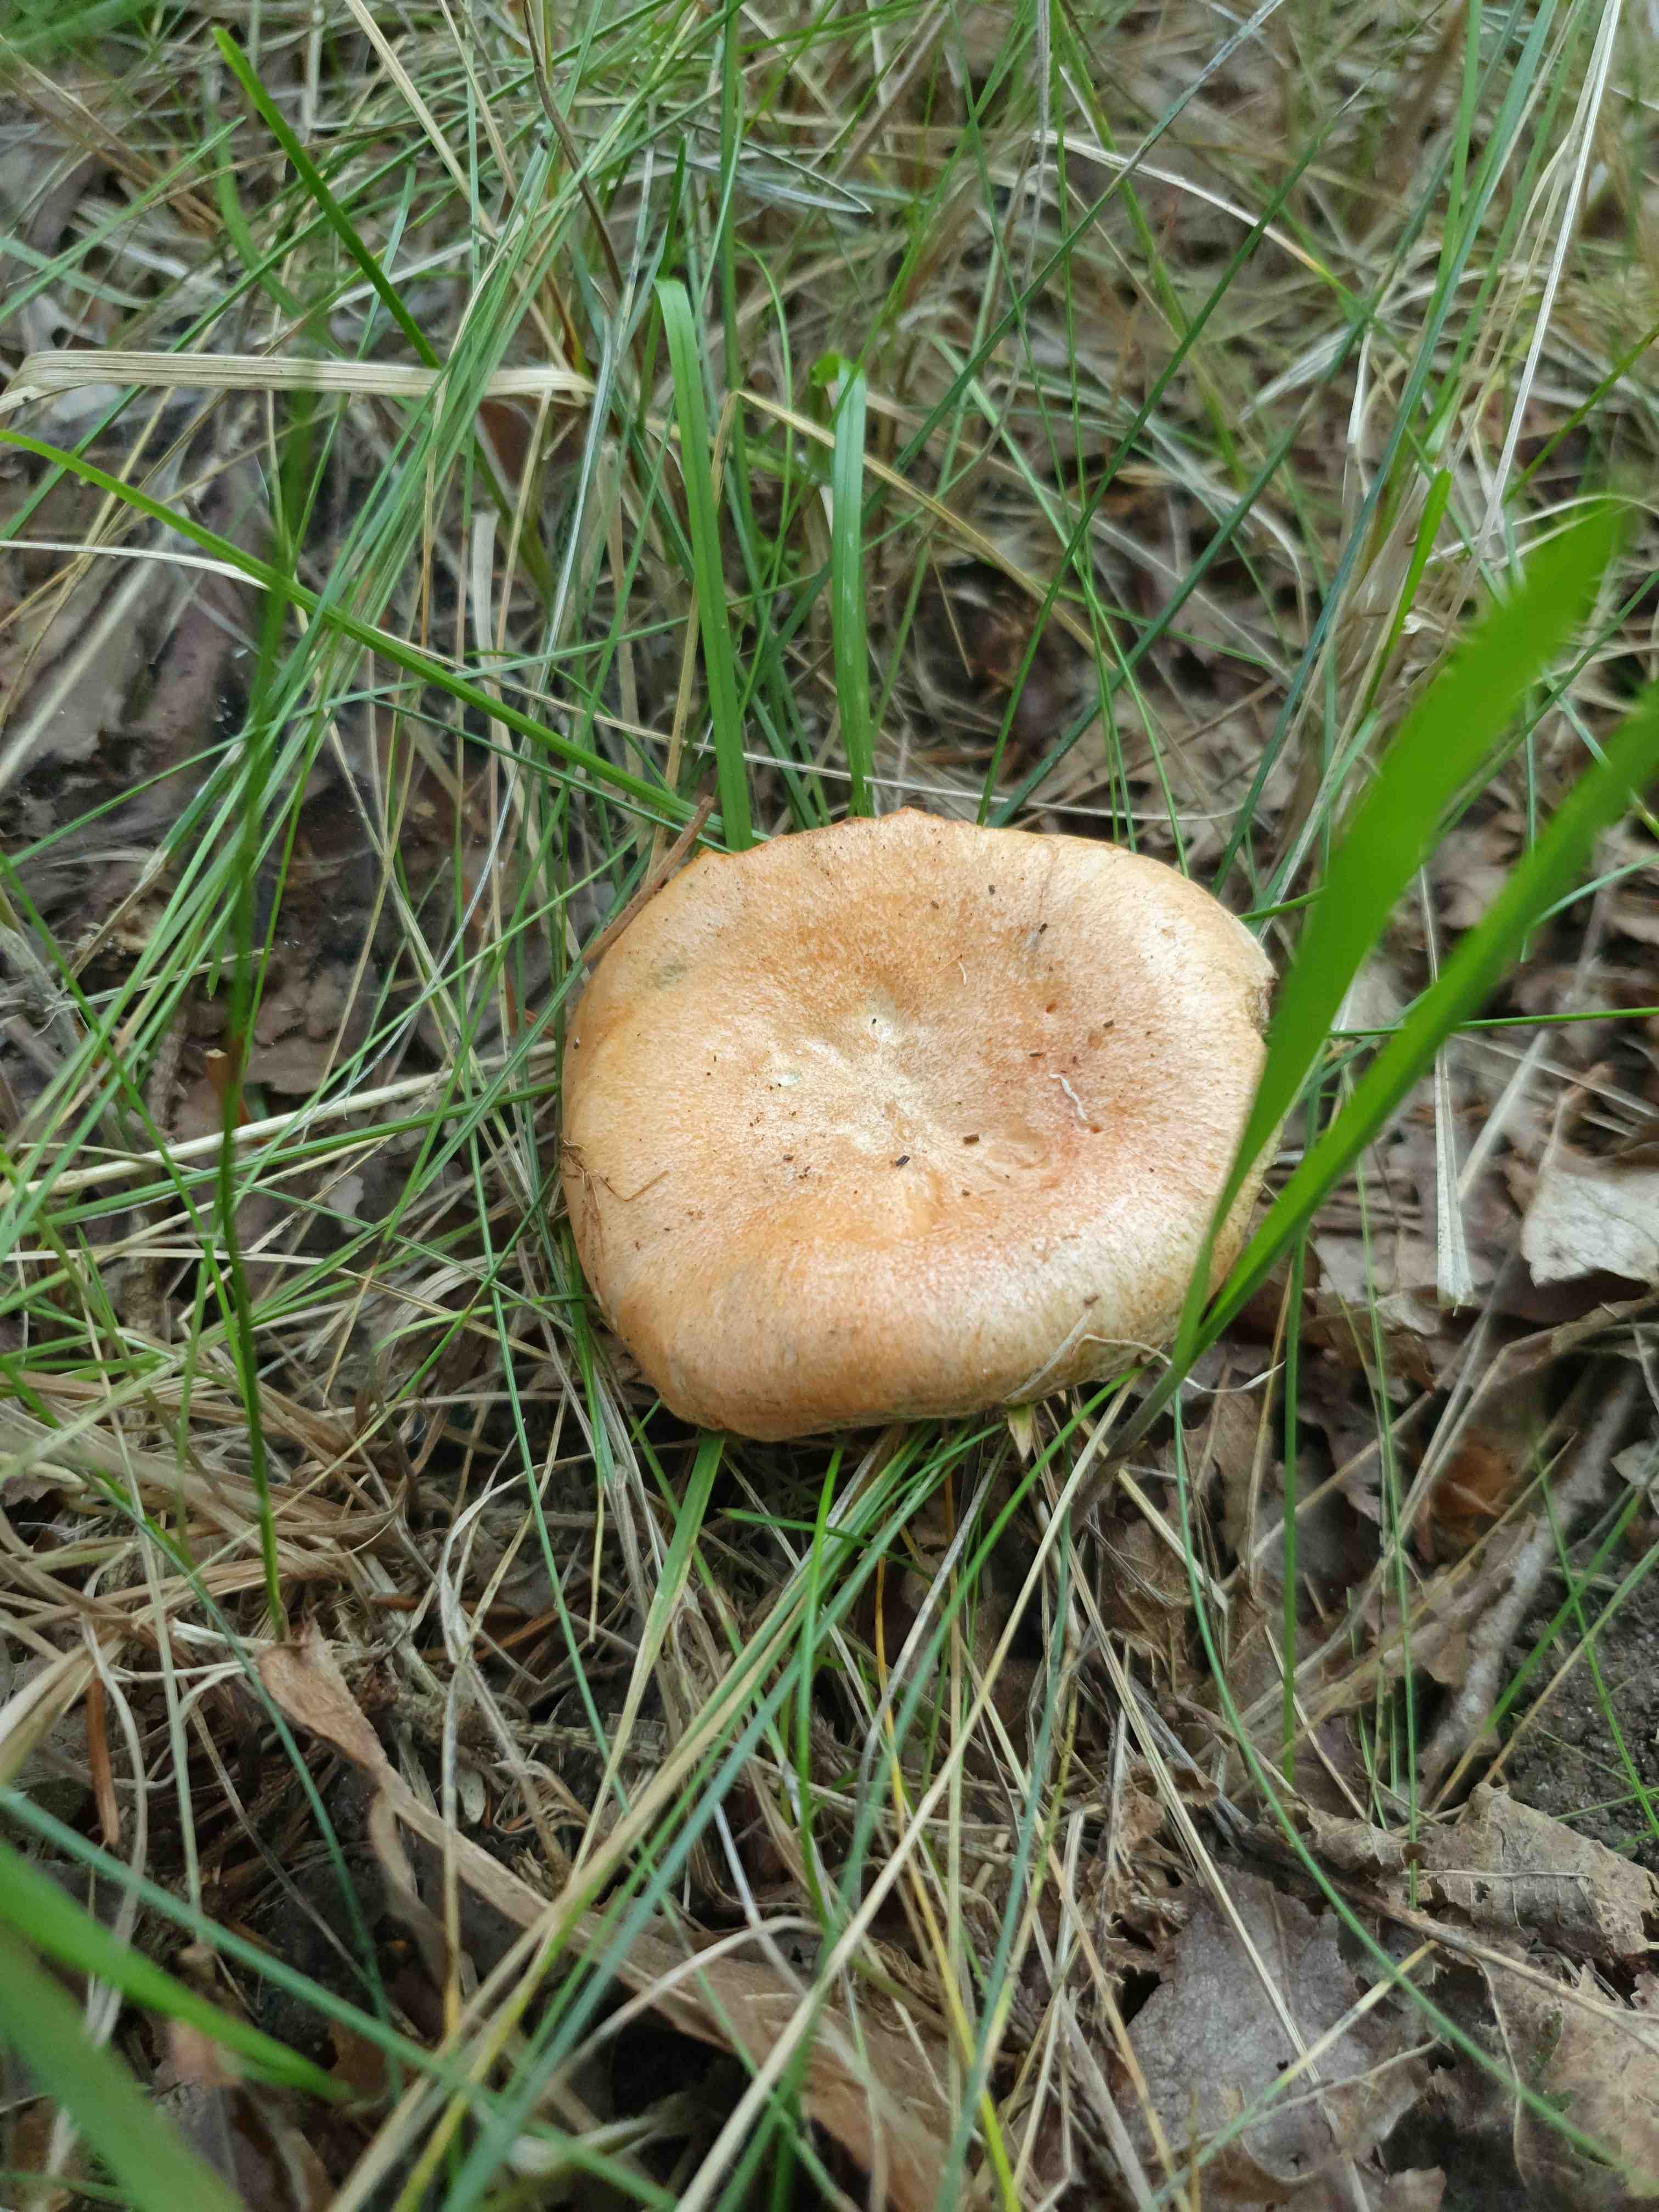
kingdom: Fungi
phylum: Basidiomycota
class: Agaricomycetes
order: Russulales
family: Russulaceae
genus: Lactarius
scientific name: Lactarius deterrimus
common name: gran-mælkehat
